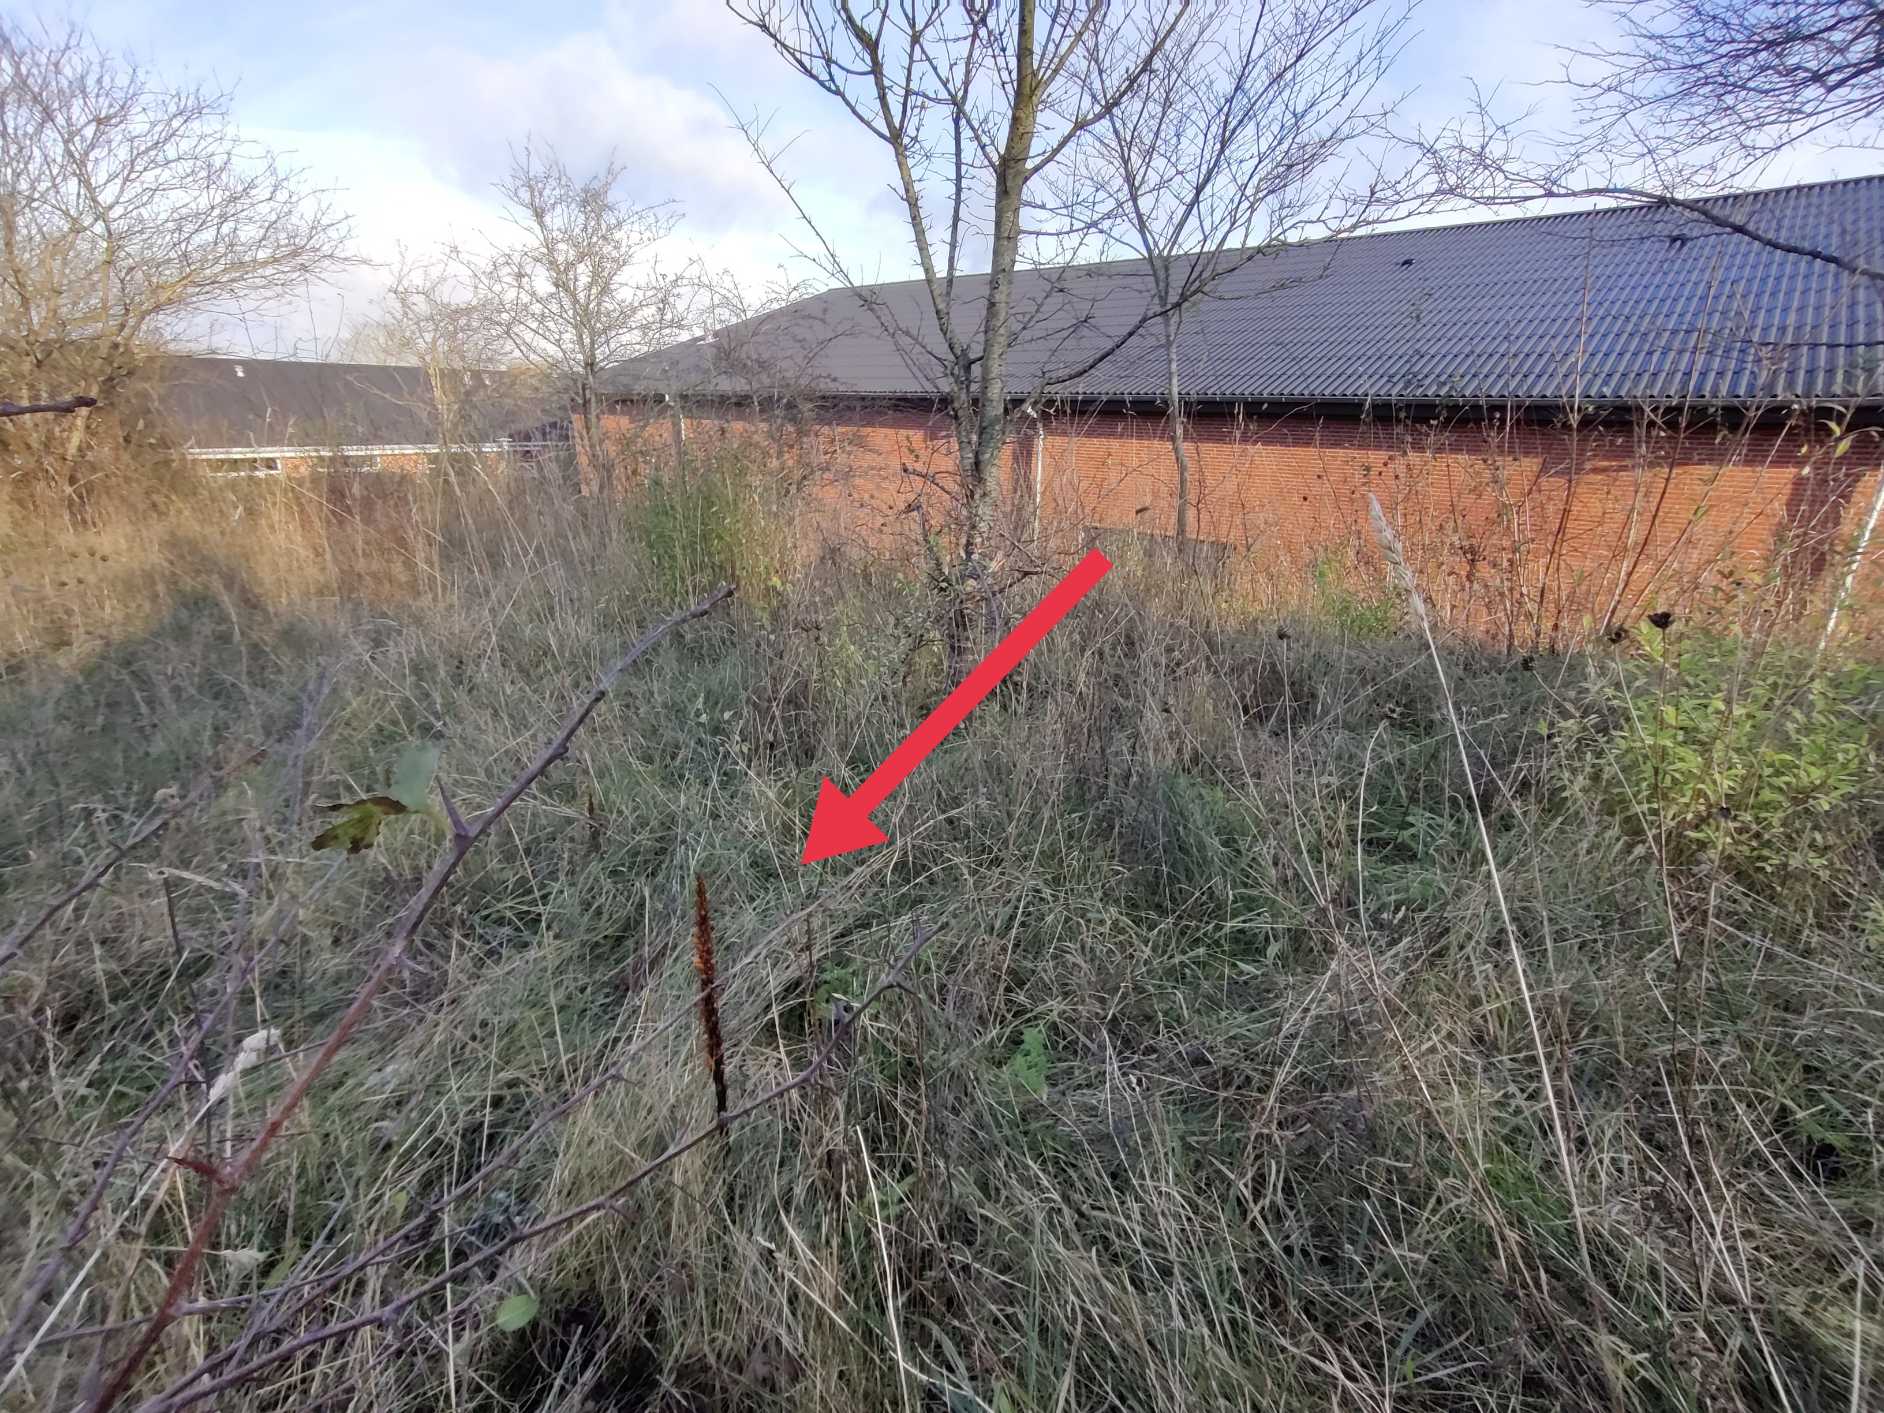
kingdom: Plantae
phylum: Tracheophyta
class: Magnoliopsida
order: Lamiales
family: Orobanchaceae
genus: Orobanche
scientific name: Orobanche elatior
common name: Stor gyvelkvæler
